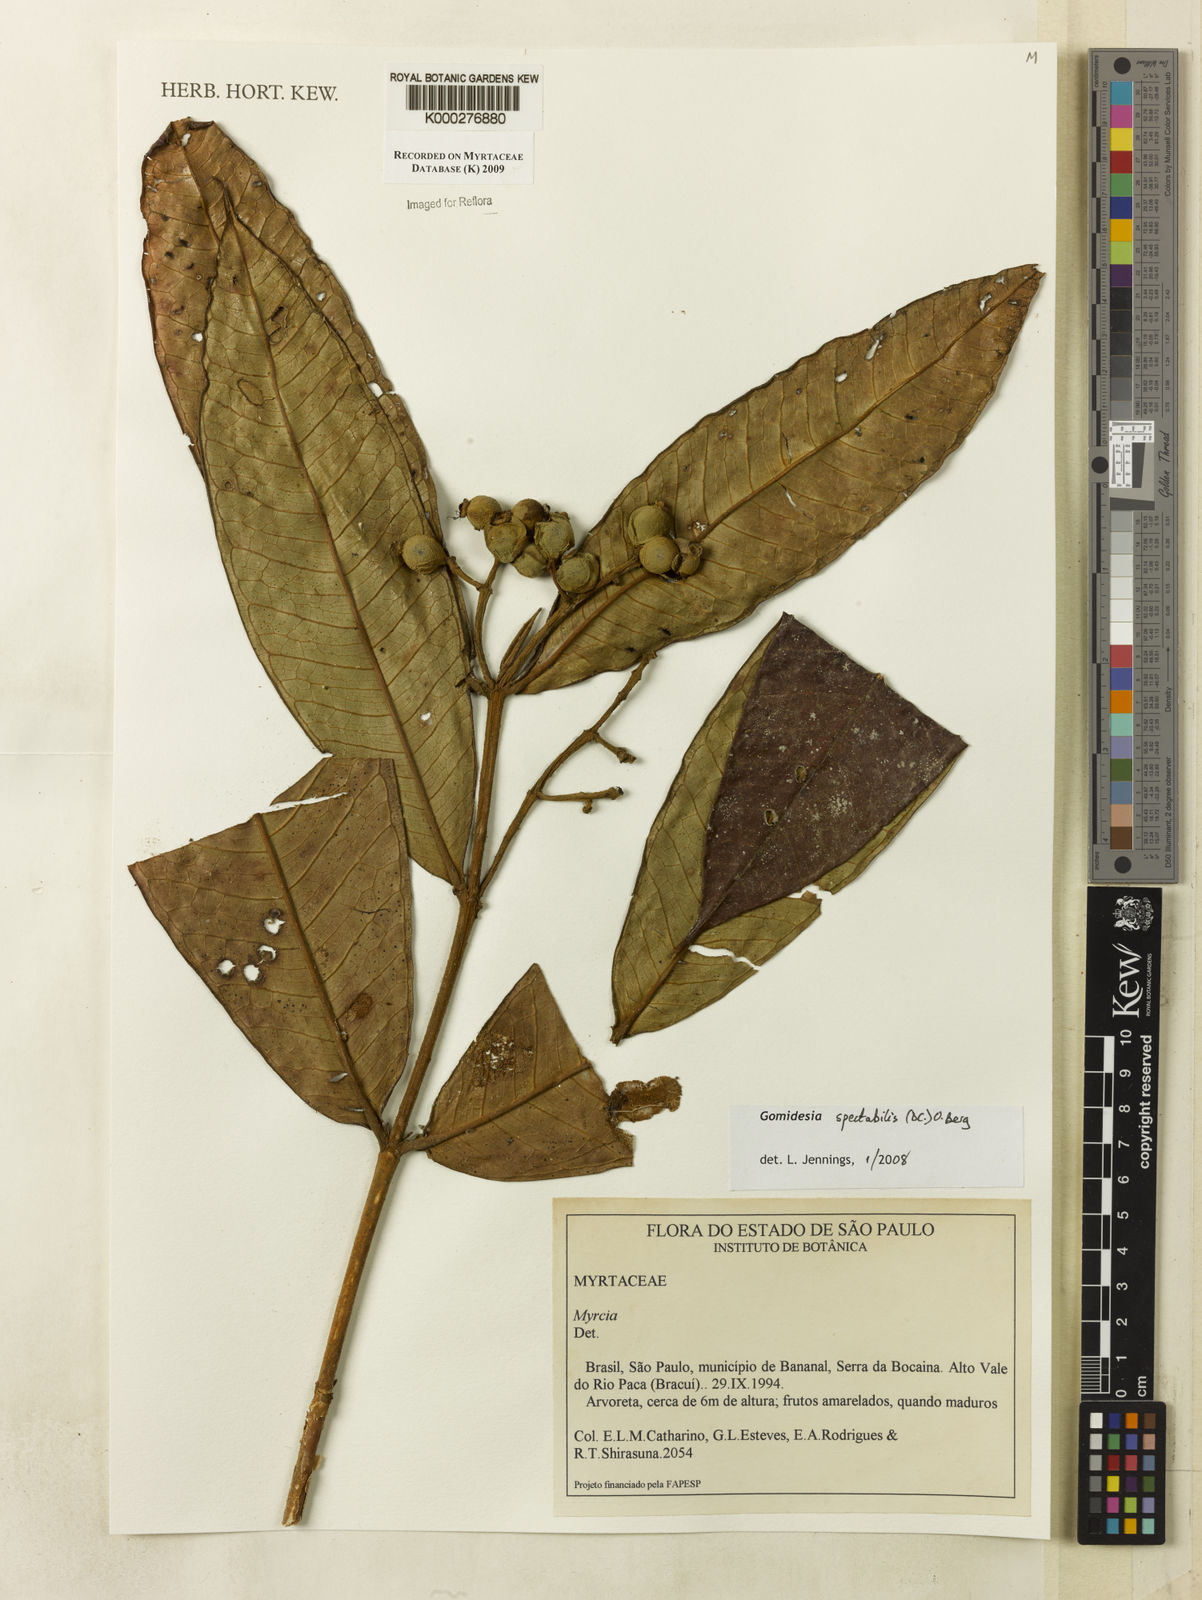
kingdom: Plantae
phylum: Tracheophyta
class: Magnoliopsida
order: Myrtales
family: Myrtaceae
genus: Myrcia
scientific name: Myrcia spectabilis
